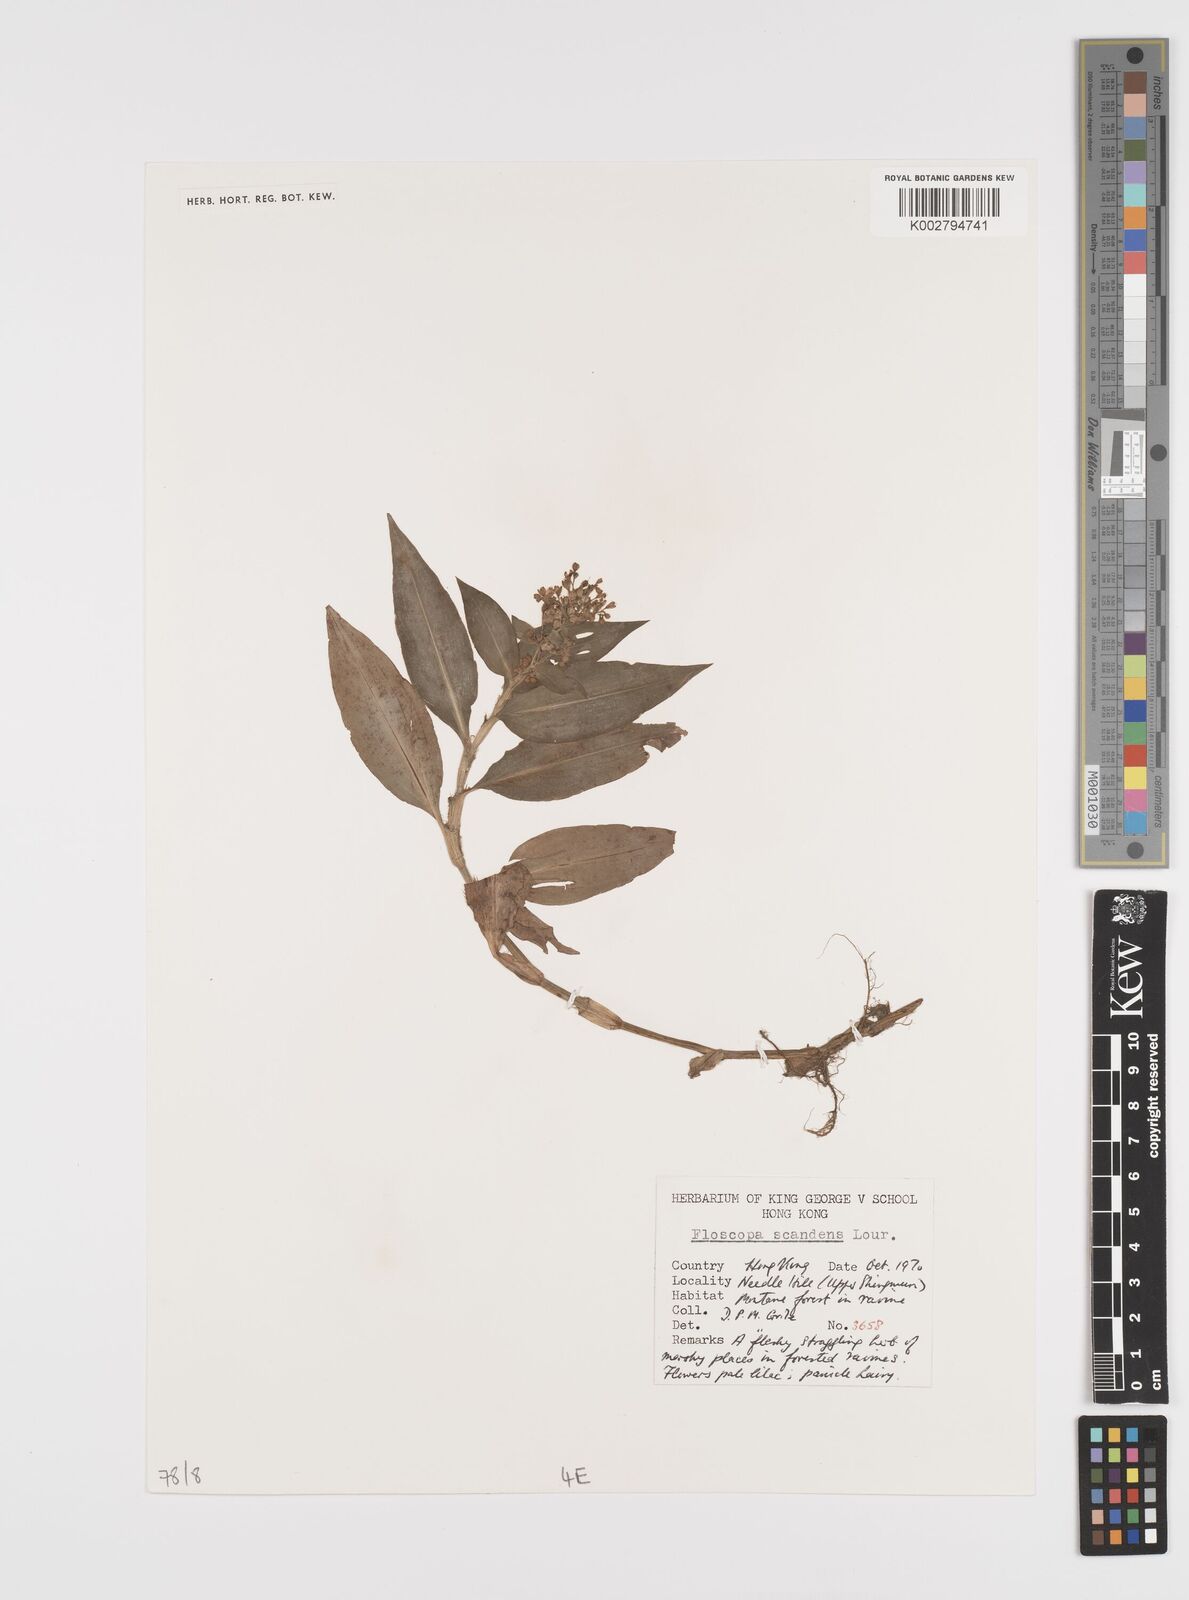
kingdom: Plantae
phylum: Tracheophyta
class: Liliopsida
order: Commelinales
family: Commelinaceae
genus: Floscopa
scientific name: Floscopa scandens
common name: Climbing flower cup
